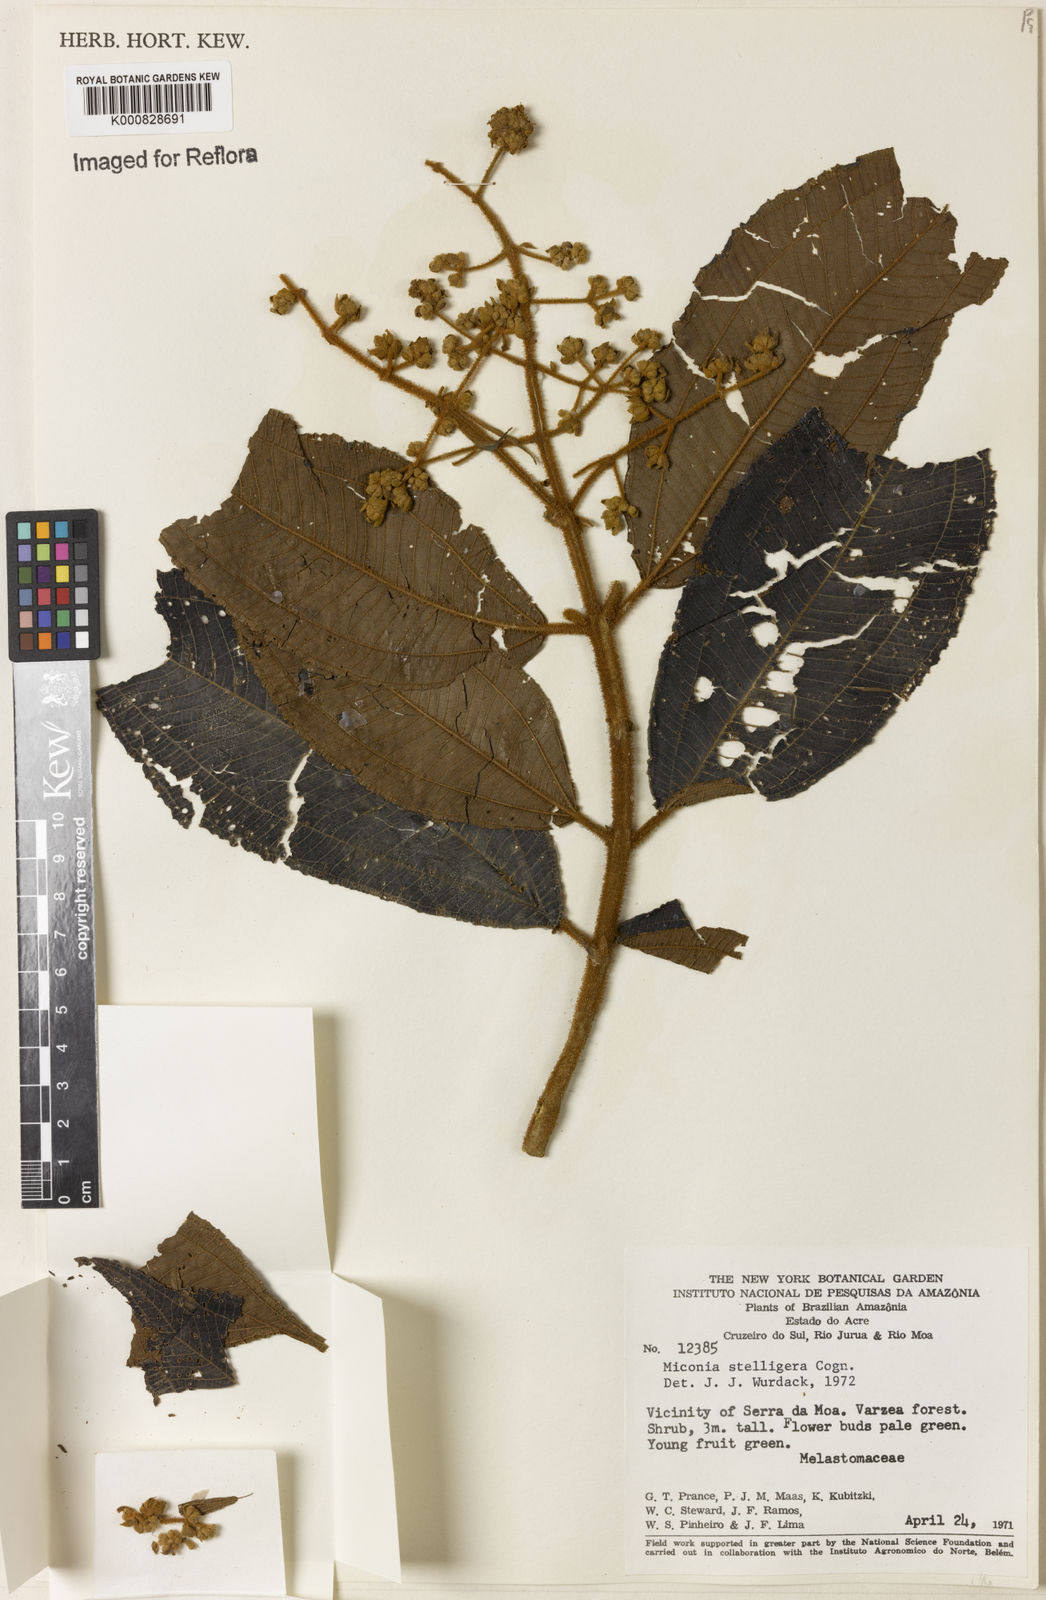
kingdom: Plantae
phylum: Tracheophyta
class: Magnoliopsida
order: Myrtales
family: Melastomataceae
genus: Miconia
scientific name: Miconia stelligera
